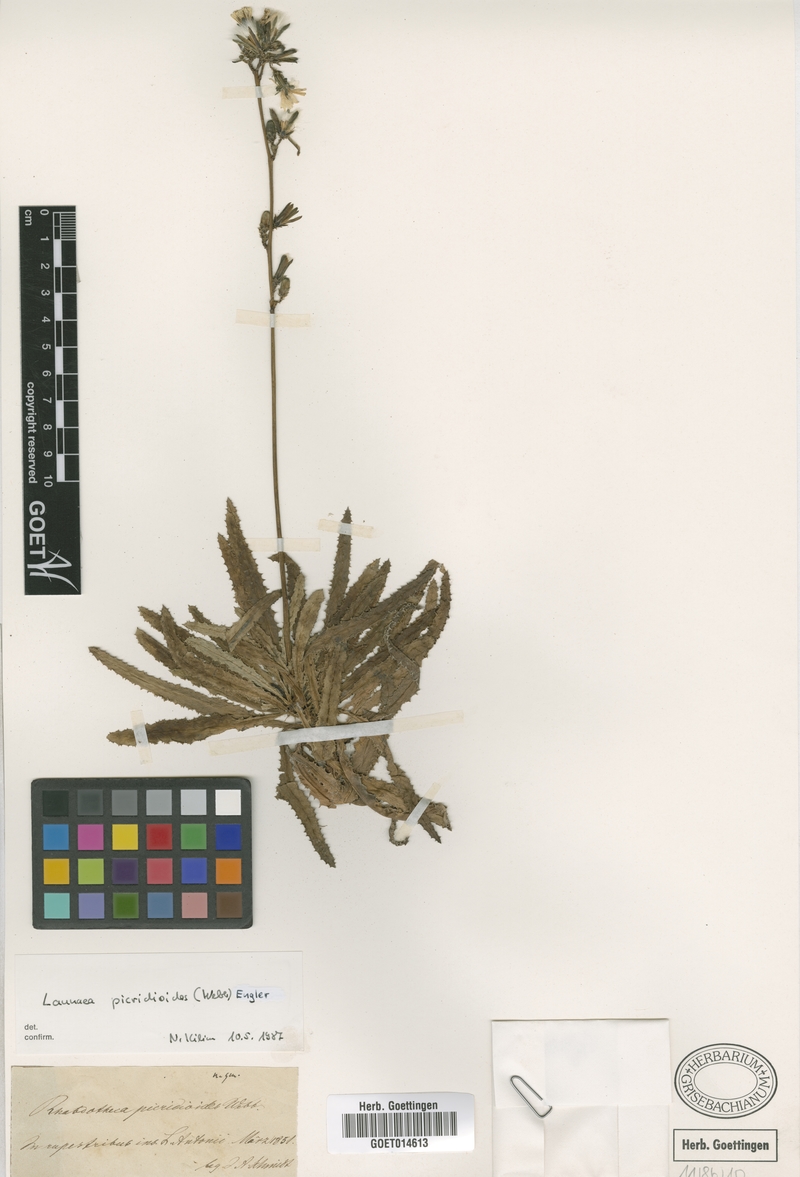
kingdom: Plantae
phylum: Tracheophyta
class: Magnoliopsida
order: Asterales
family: Asteraceae
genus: Launaea
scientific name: Launaea picridioides
